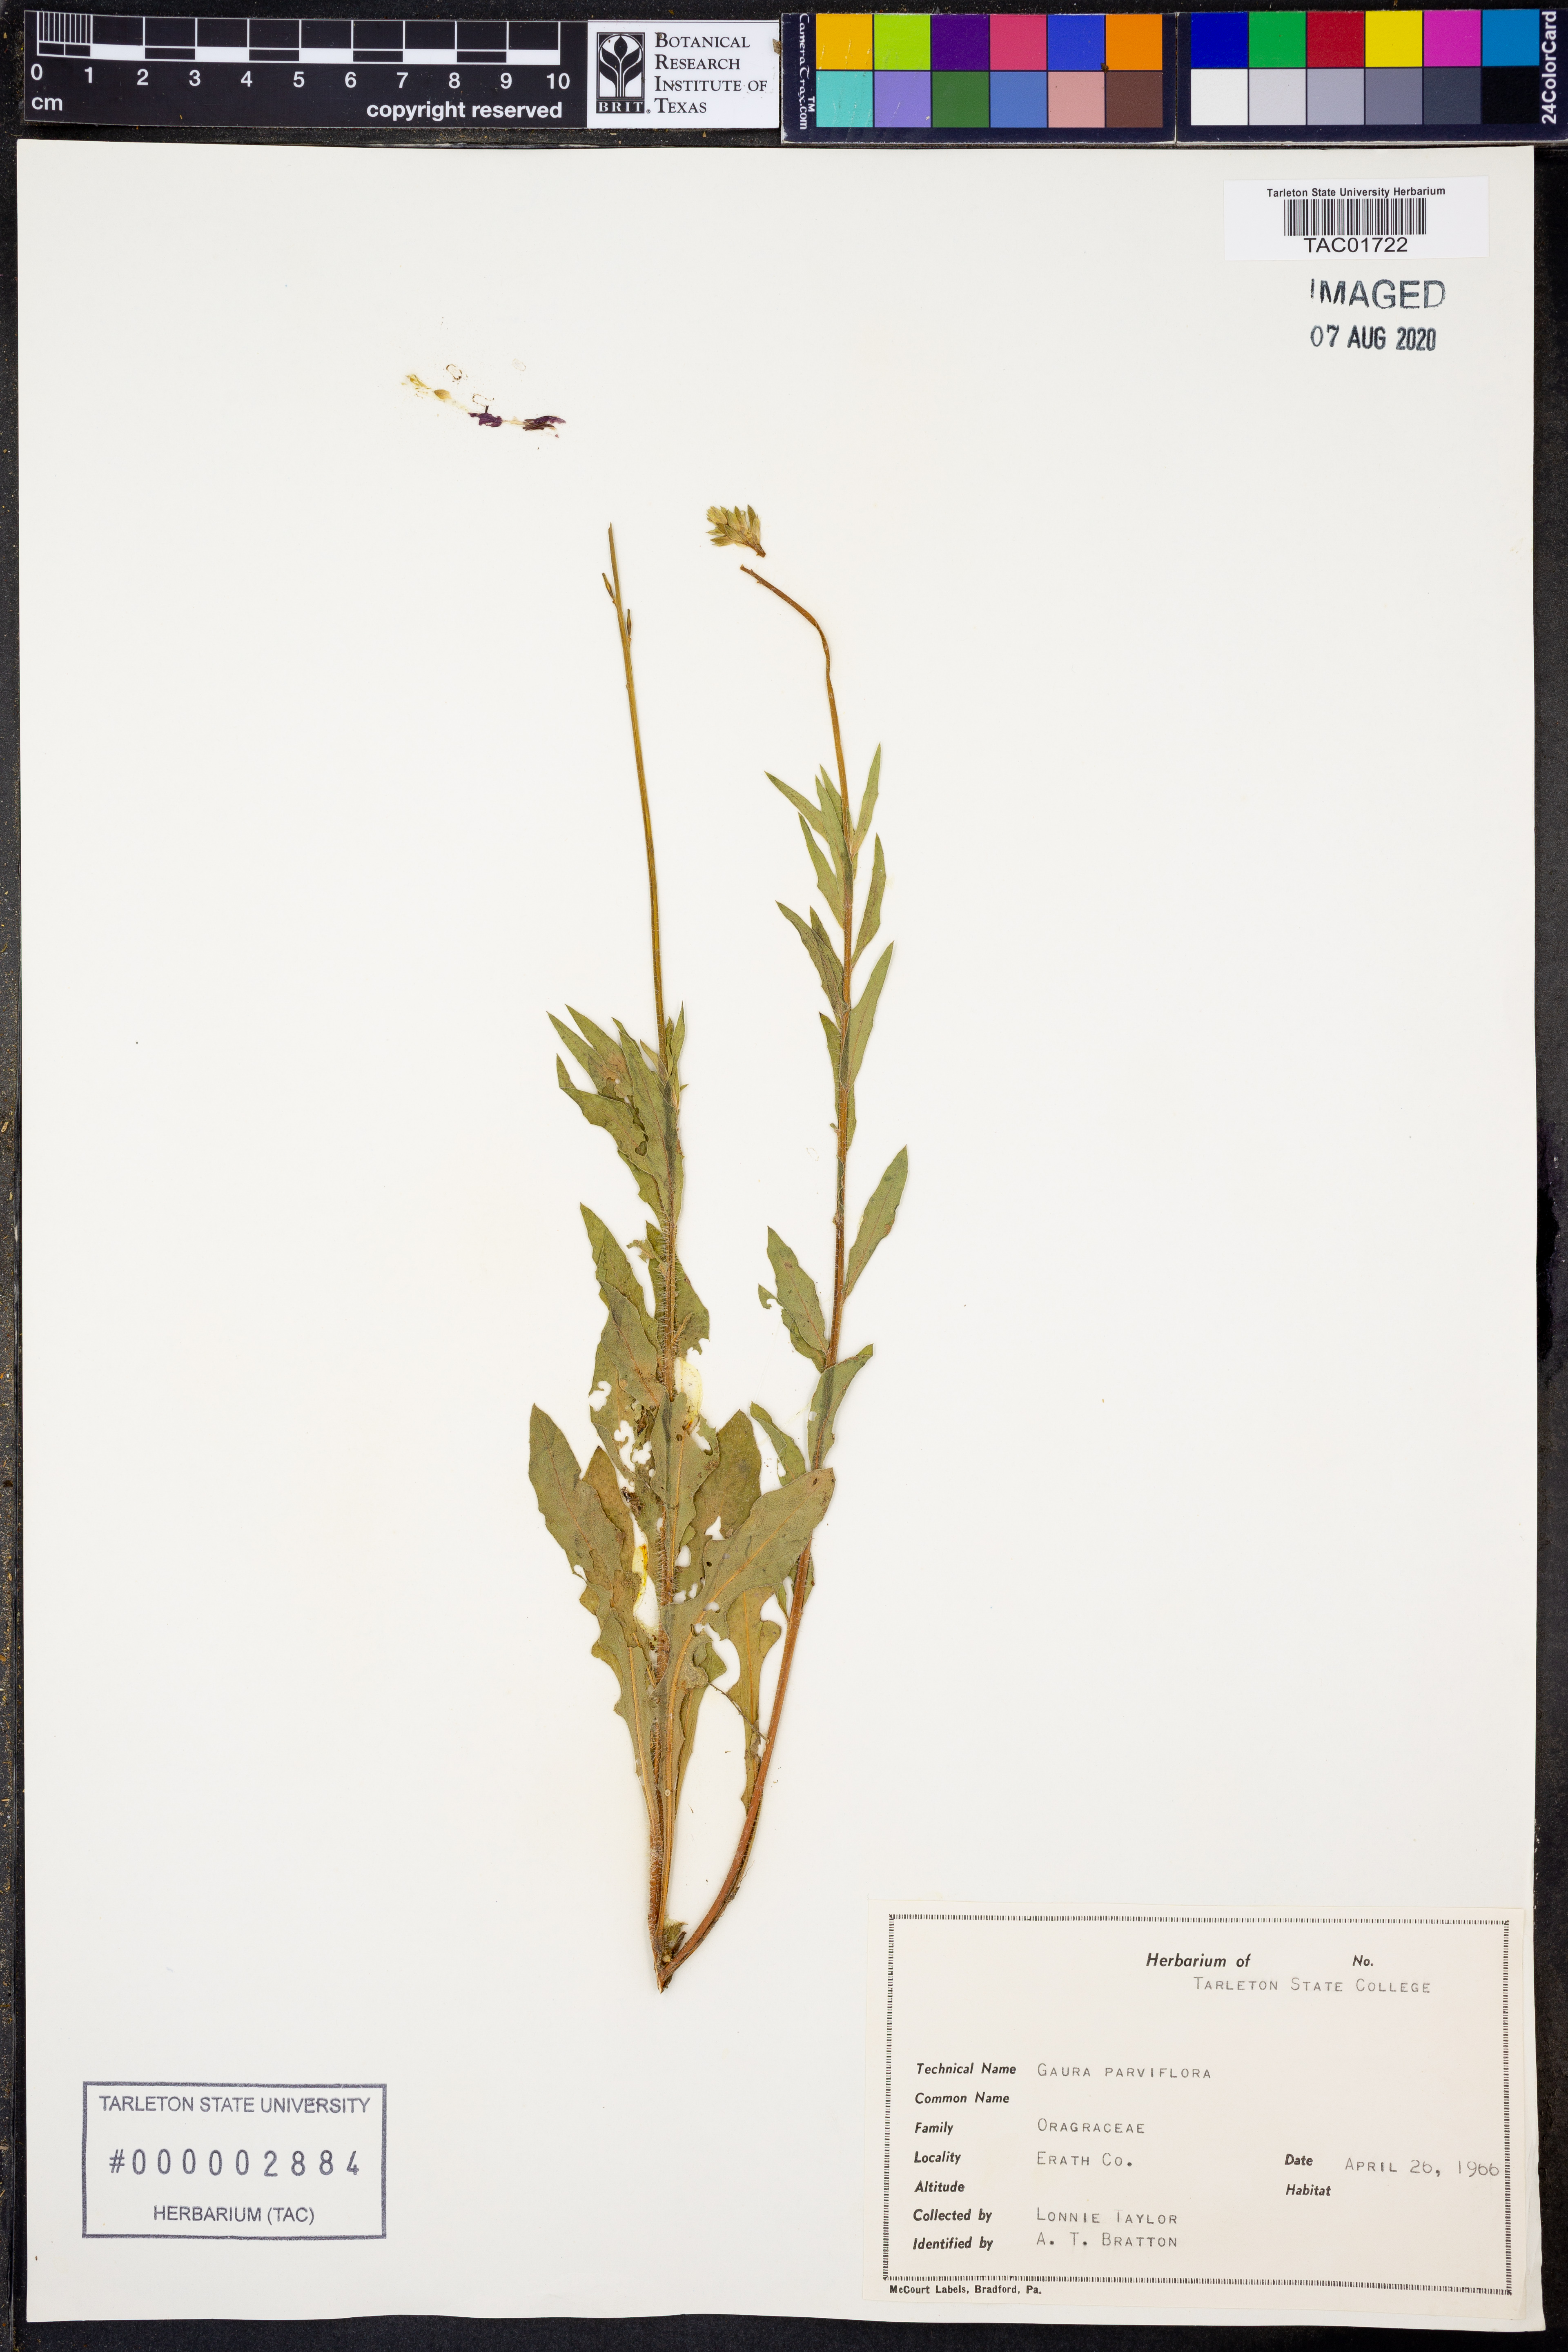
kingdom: Plantae
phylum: Tracheophyta
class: Magnoliopsida
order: Myrtales
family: Onagraceae
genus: Oenothera
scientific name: Oenothera curtiflora
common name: Velvetweed
